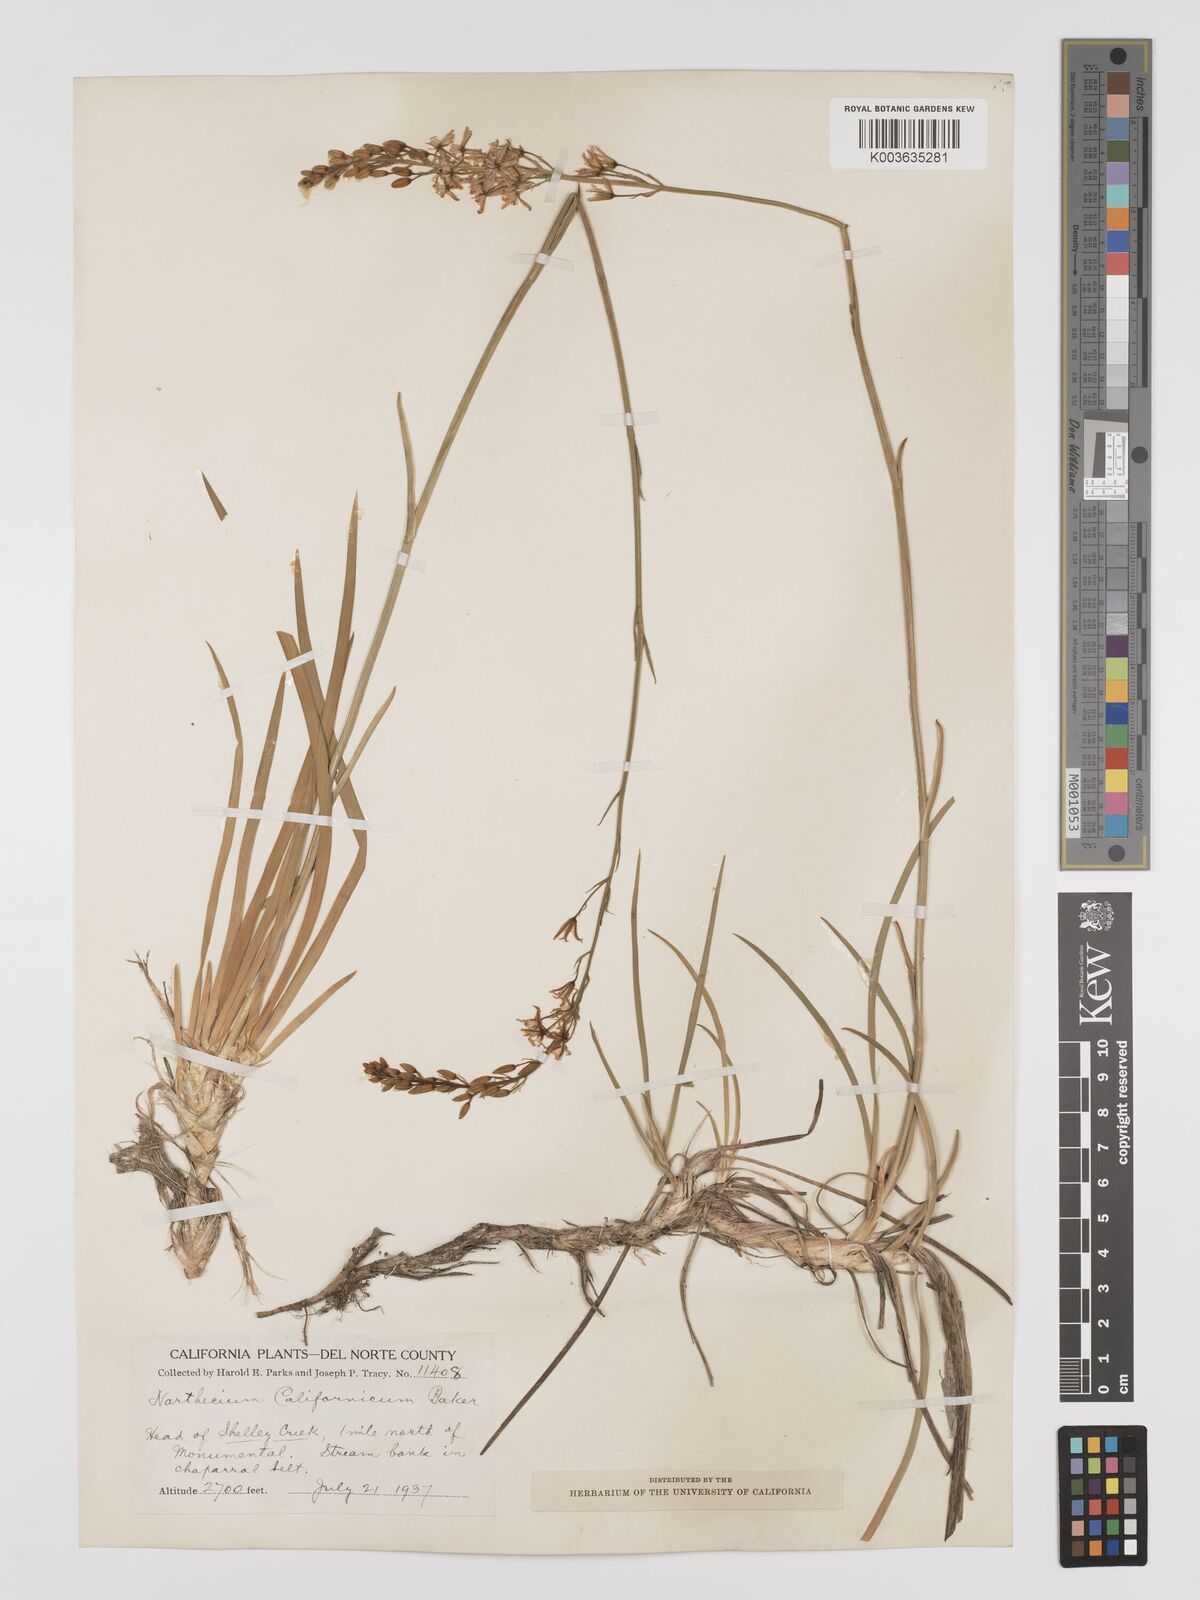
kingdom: Plantae
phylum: Tracheophyta
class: Liliopsida
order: Dioscoreales
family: Nartheciaceae
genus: Narthecium
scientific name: Narthecium californicum
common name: California bog-asphodel
